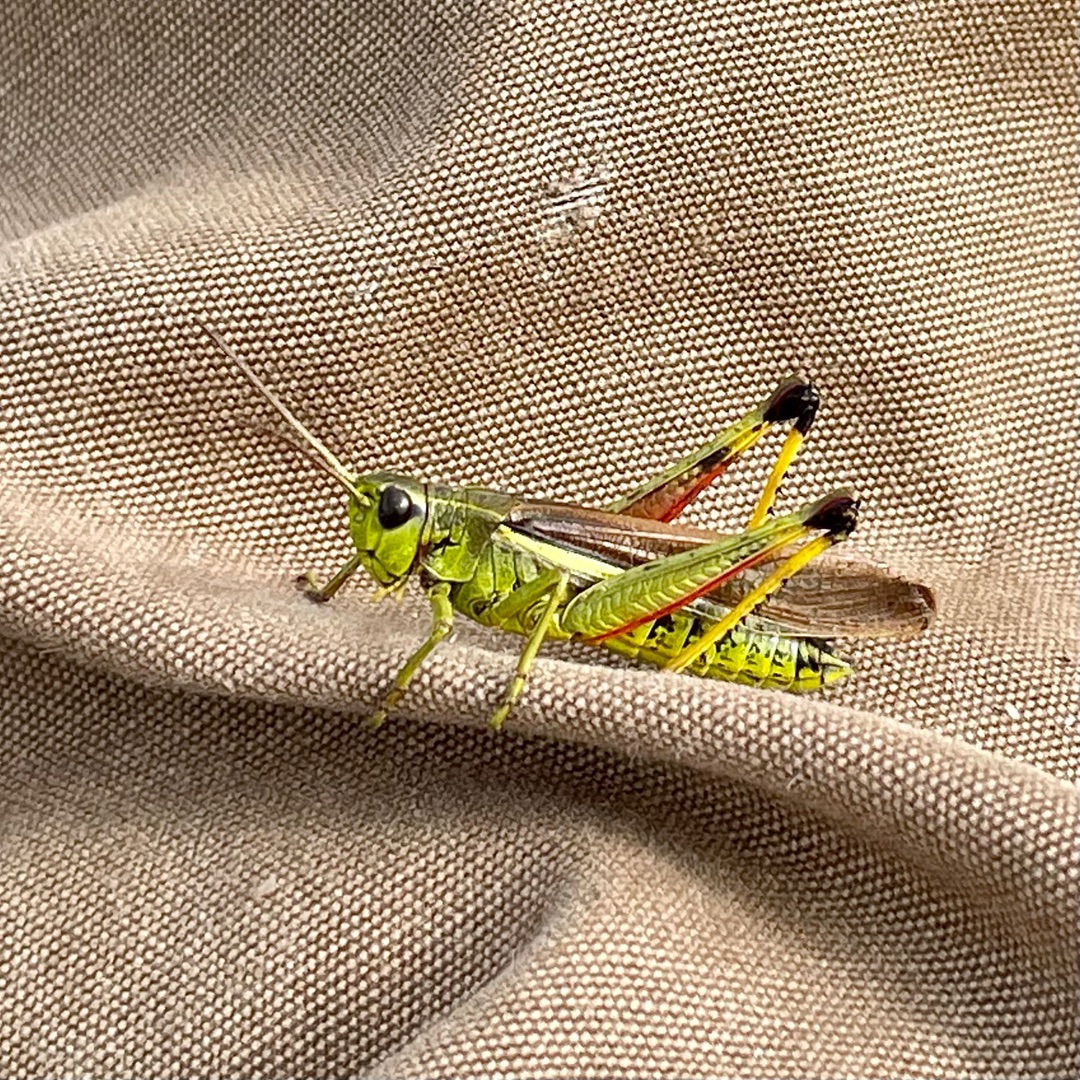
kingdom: Animalia
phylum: Arthropoda
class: Insecta
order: Orthoptera
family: Acrididae
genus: Stethophyma
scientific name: Stethophyma grossum
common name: Sumpgræshoppe
